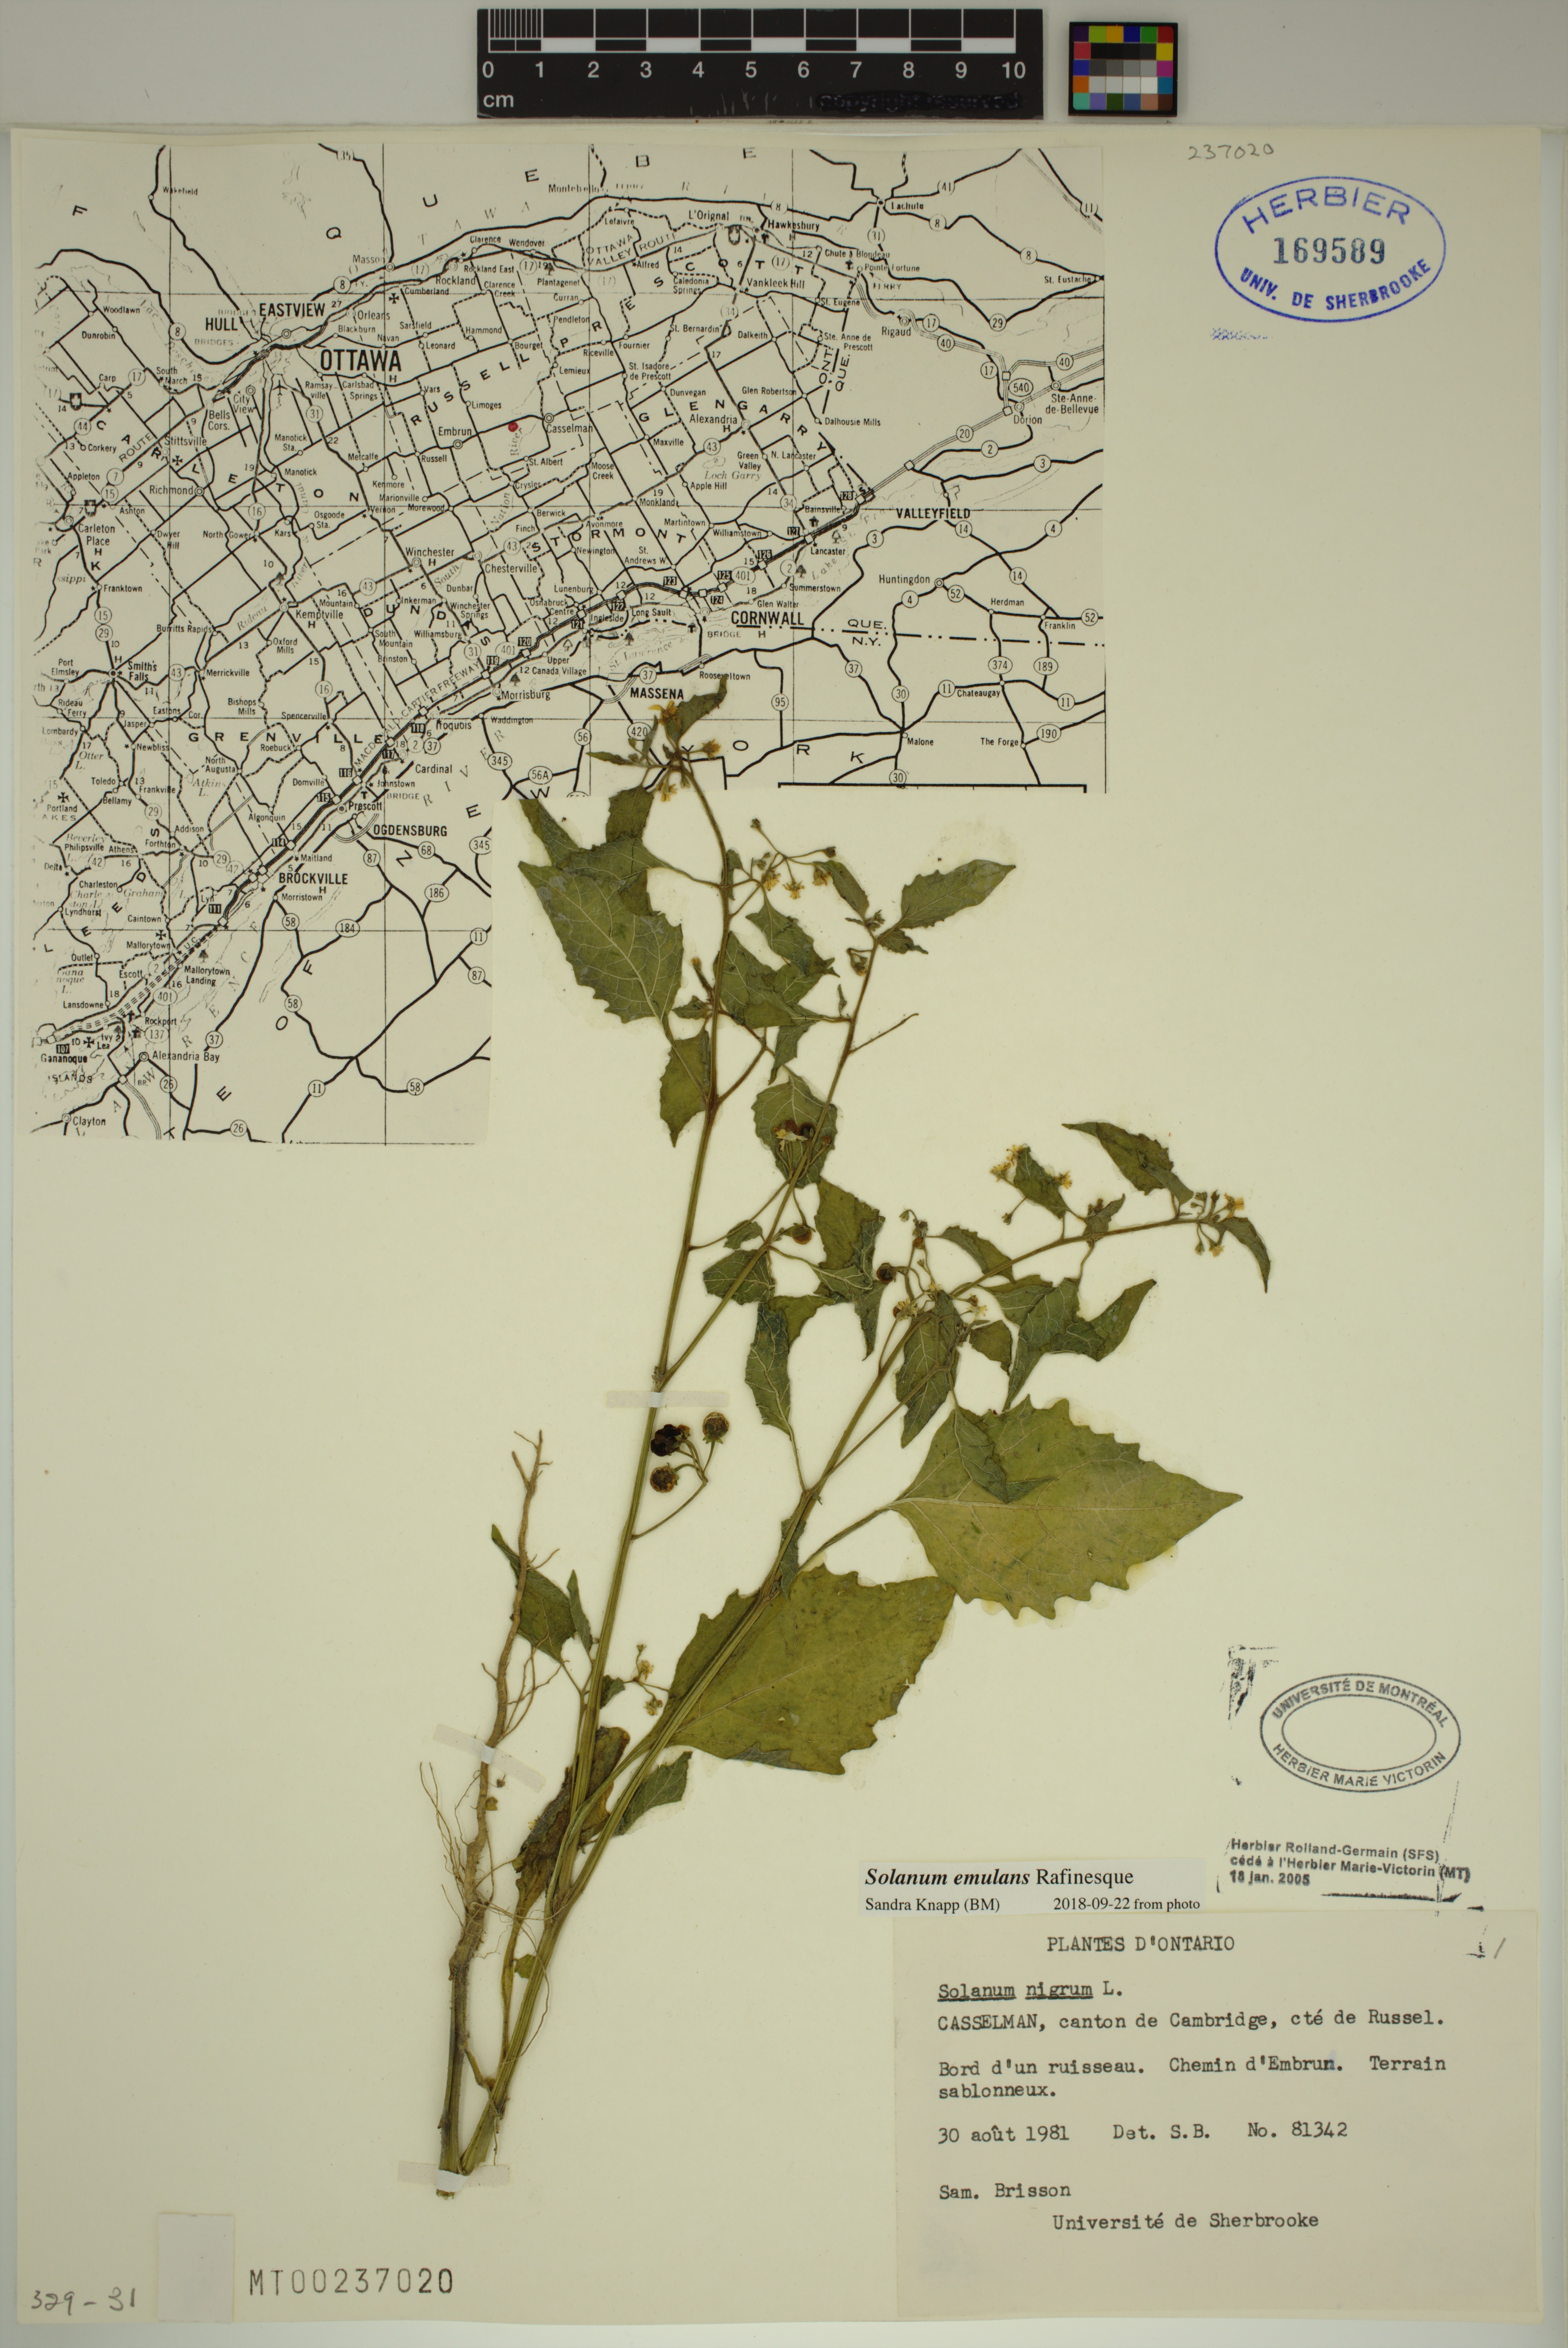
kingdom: Plantae
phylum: Tracheophyta
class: Magnoliopsida
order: Solanales
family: Solanaceae
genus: Solanum
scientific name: Solanum emulans
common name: Eastern black nightshade
